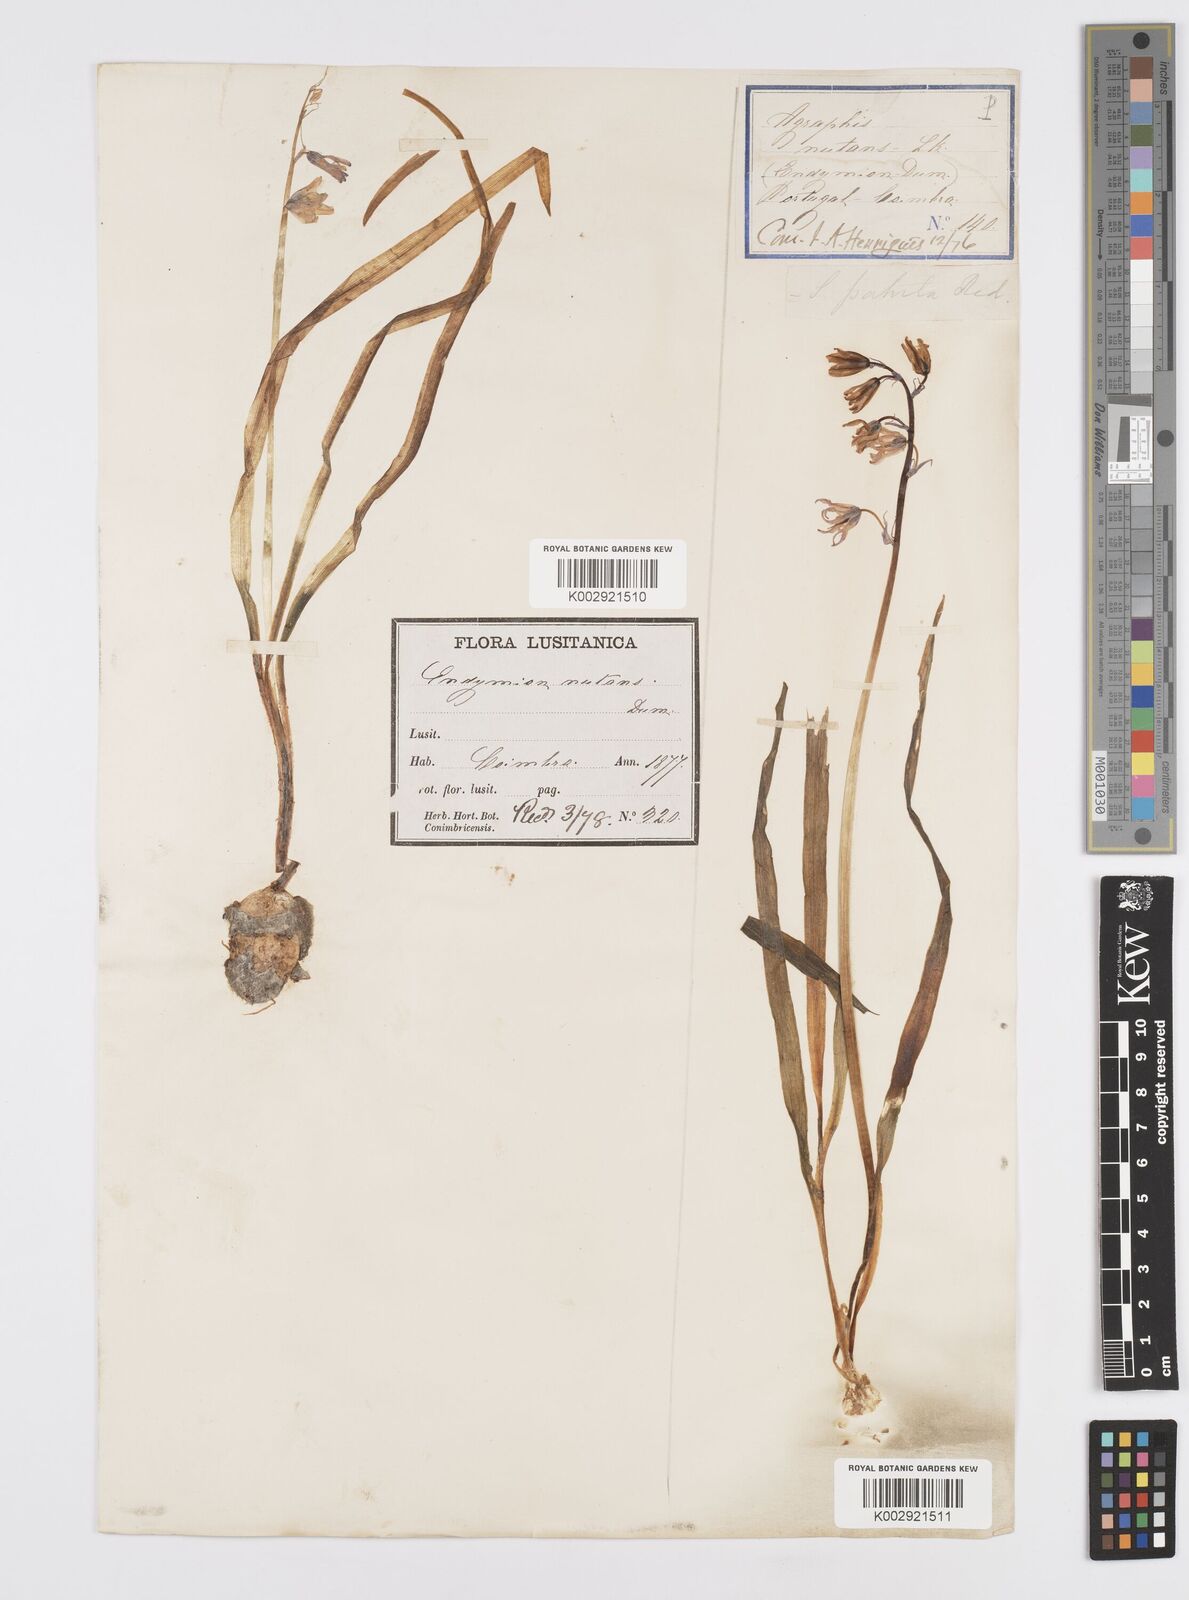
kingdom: Plantae
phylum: Tracheophyta
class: Liliopsida
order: Asparagales
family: Asparagaceae
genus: Hyacinthoides
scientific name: Hyacinthoides hispanica
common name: Spanish bluebell
